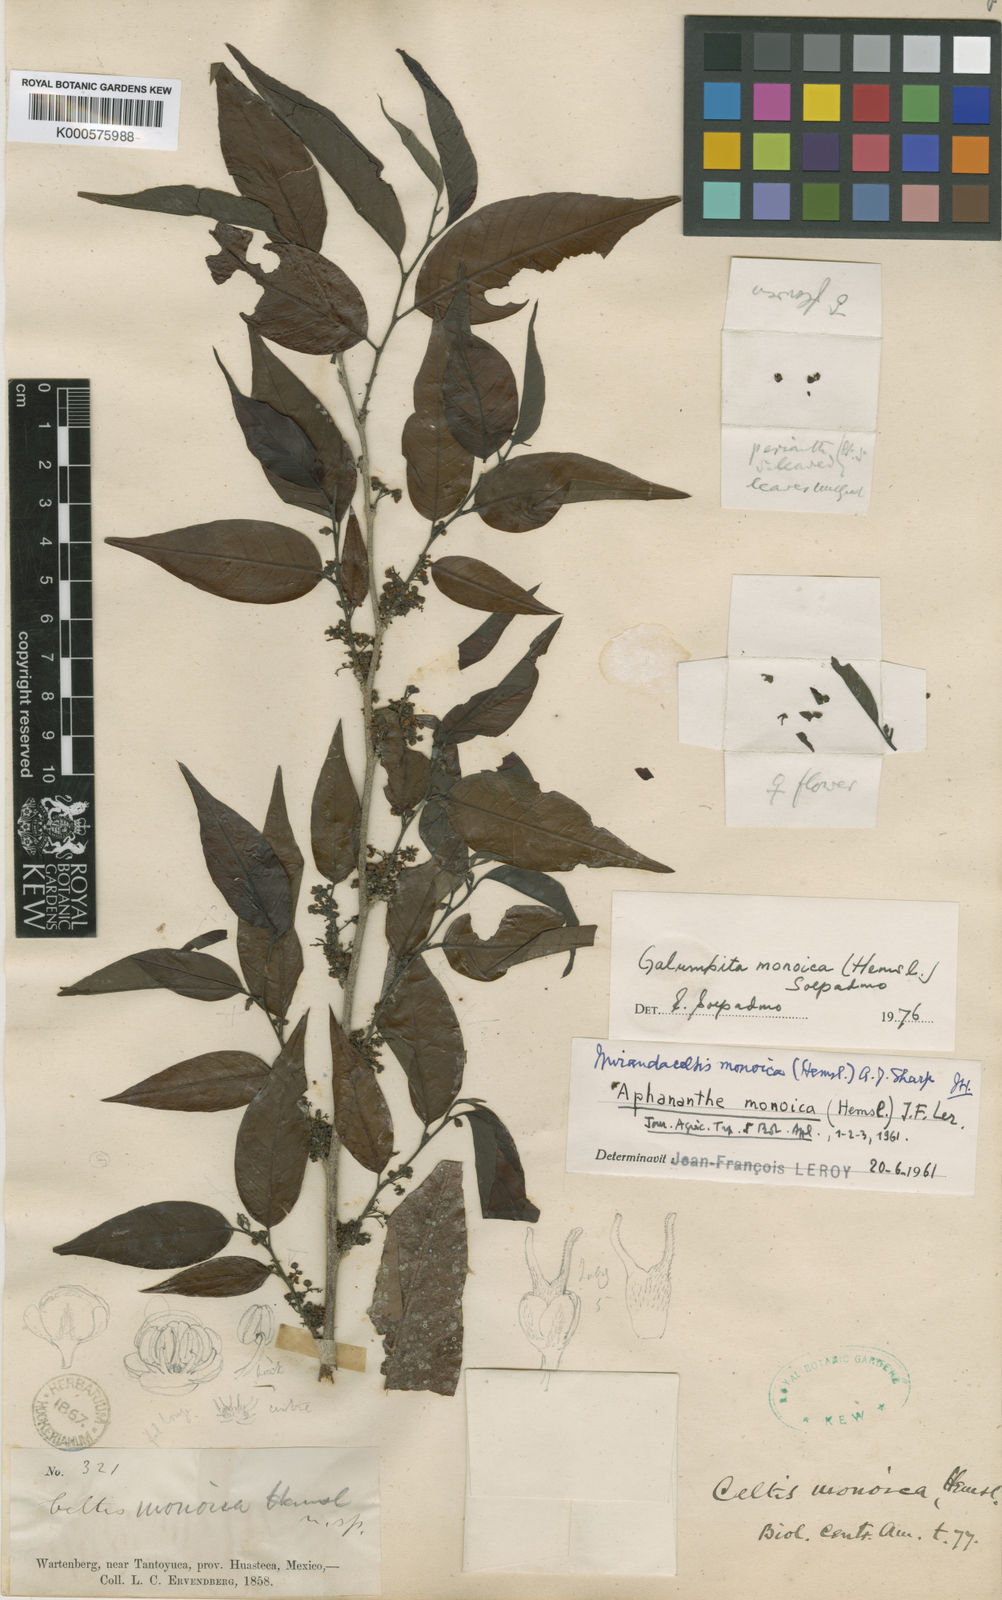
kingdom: Plantae
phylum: Tracheophyta
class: Magnoliopsida
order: Rosales
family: Cannabaceae
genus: Aphananthe
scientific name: Aphananthe monoica
